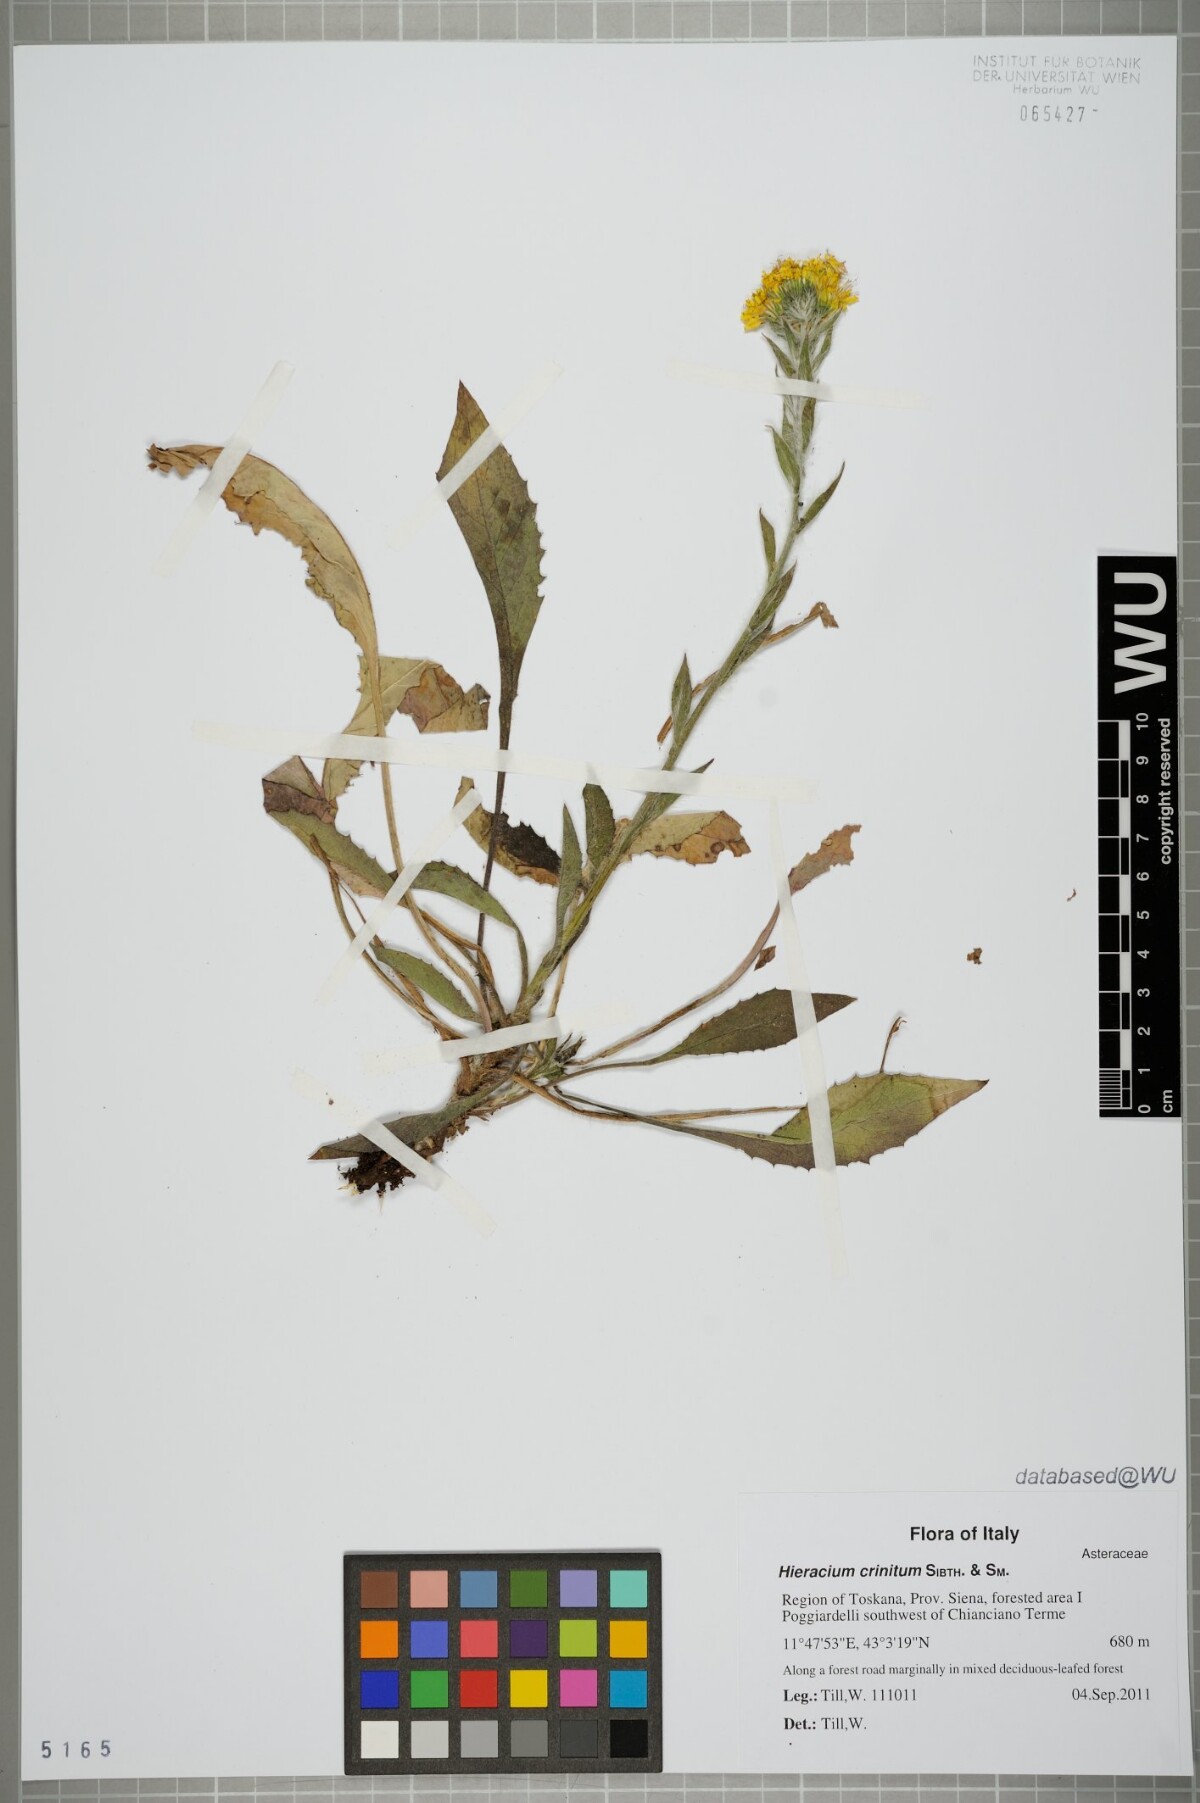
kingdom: Plantae
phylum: Tracheophyta
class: Magnoliopsida
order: Asterales
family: Asteraceae
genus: Hieracium
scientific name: Hieracium racemosum
